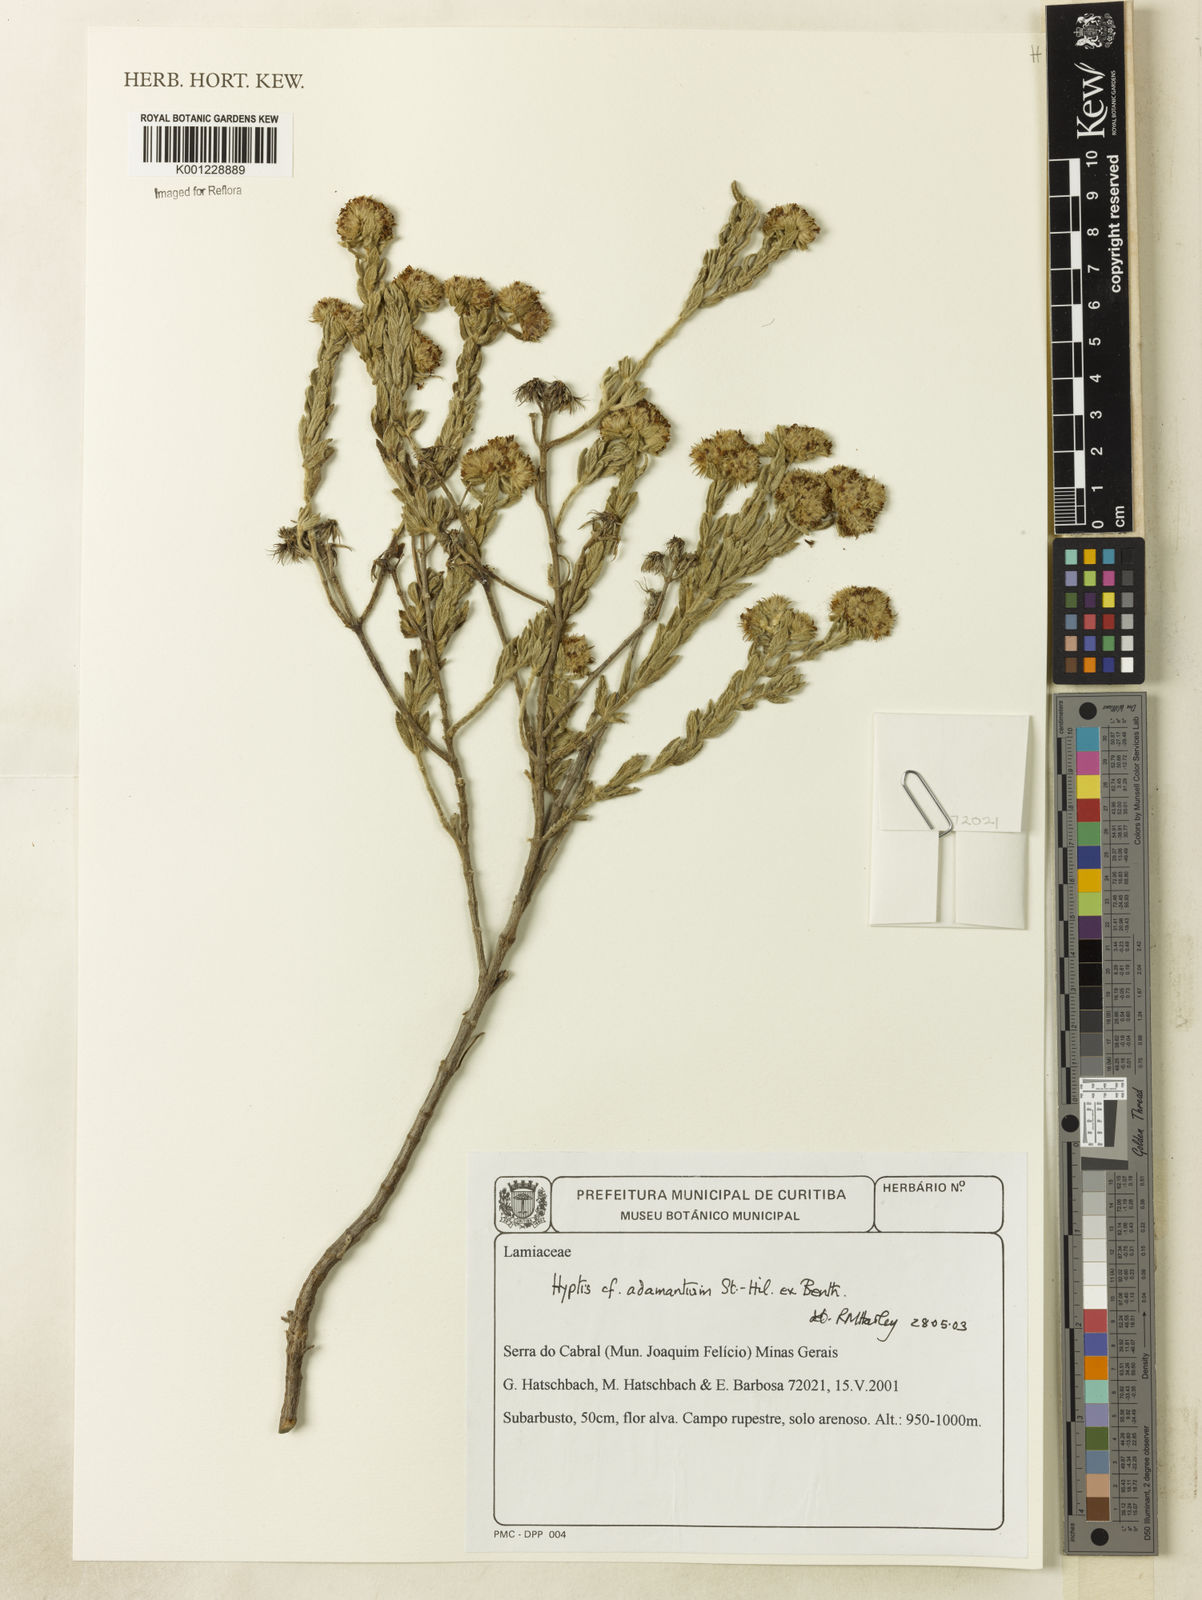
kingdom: Plantae
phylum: Tracheophyta
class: Magnoliopsida
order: Lamiales
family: Lamiaceae
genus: Hyptis
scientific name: Hyptis adamantium
